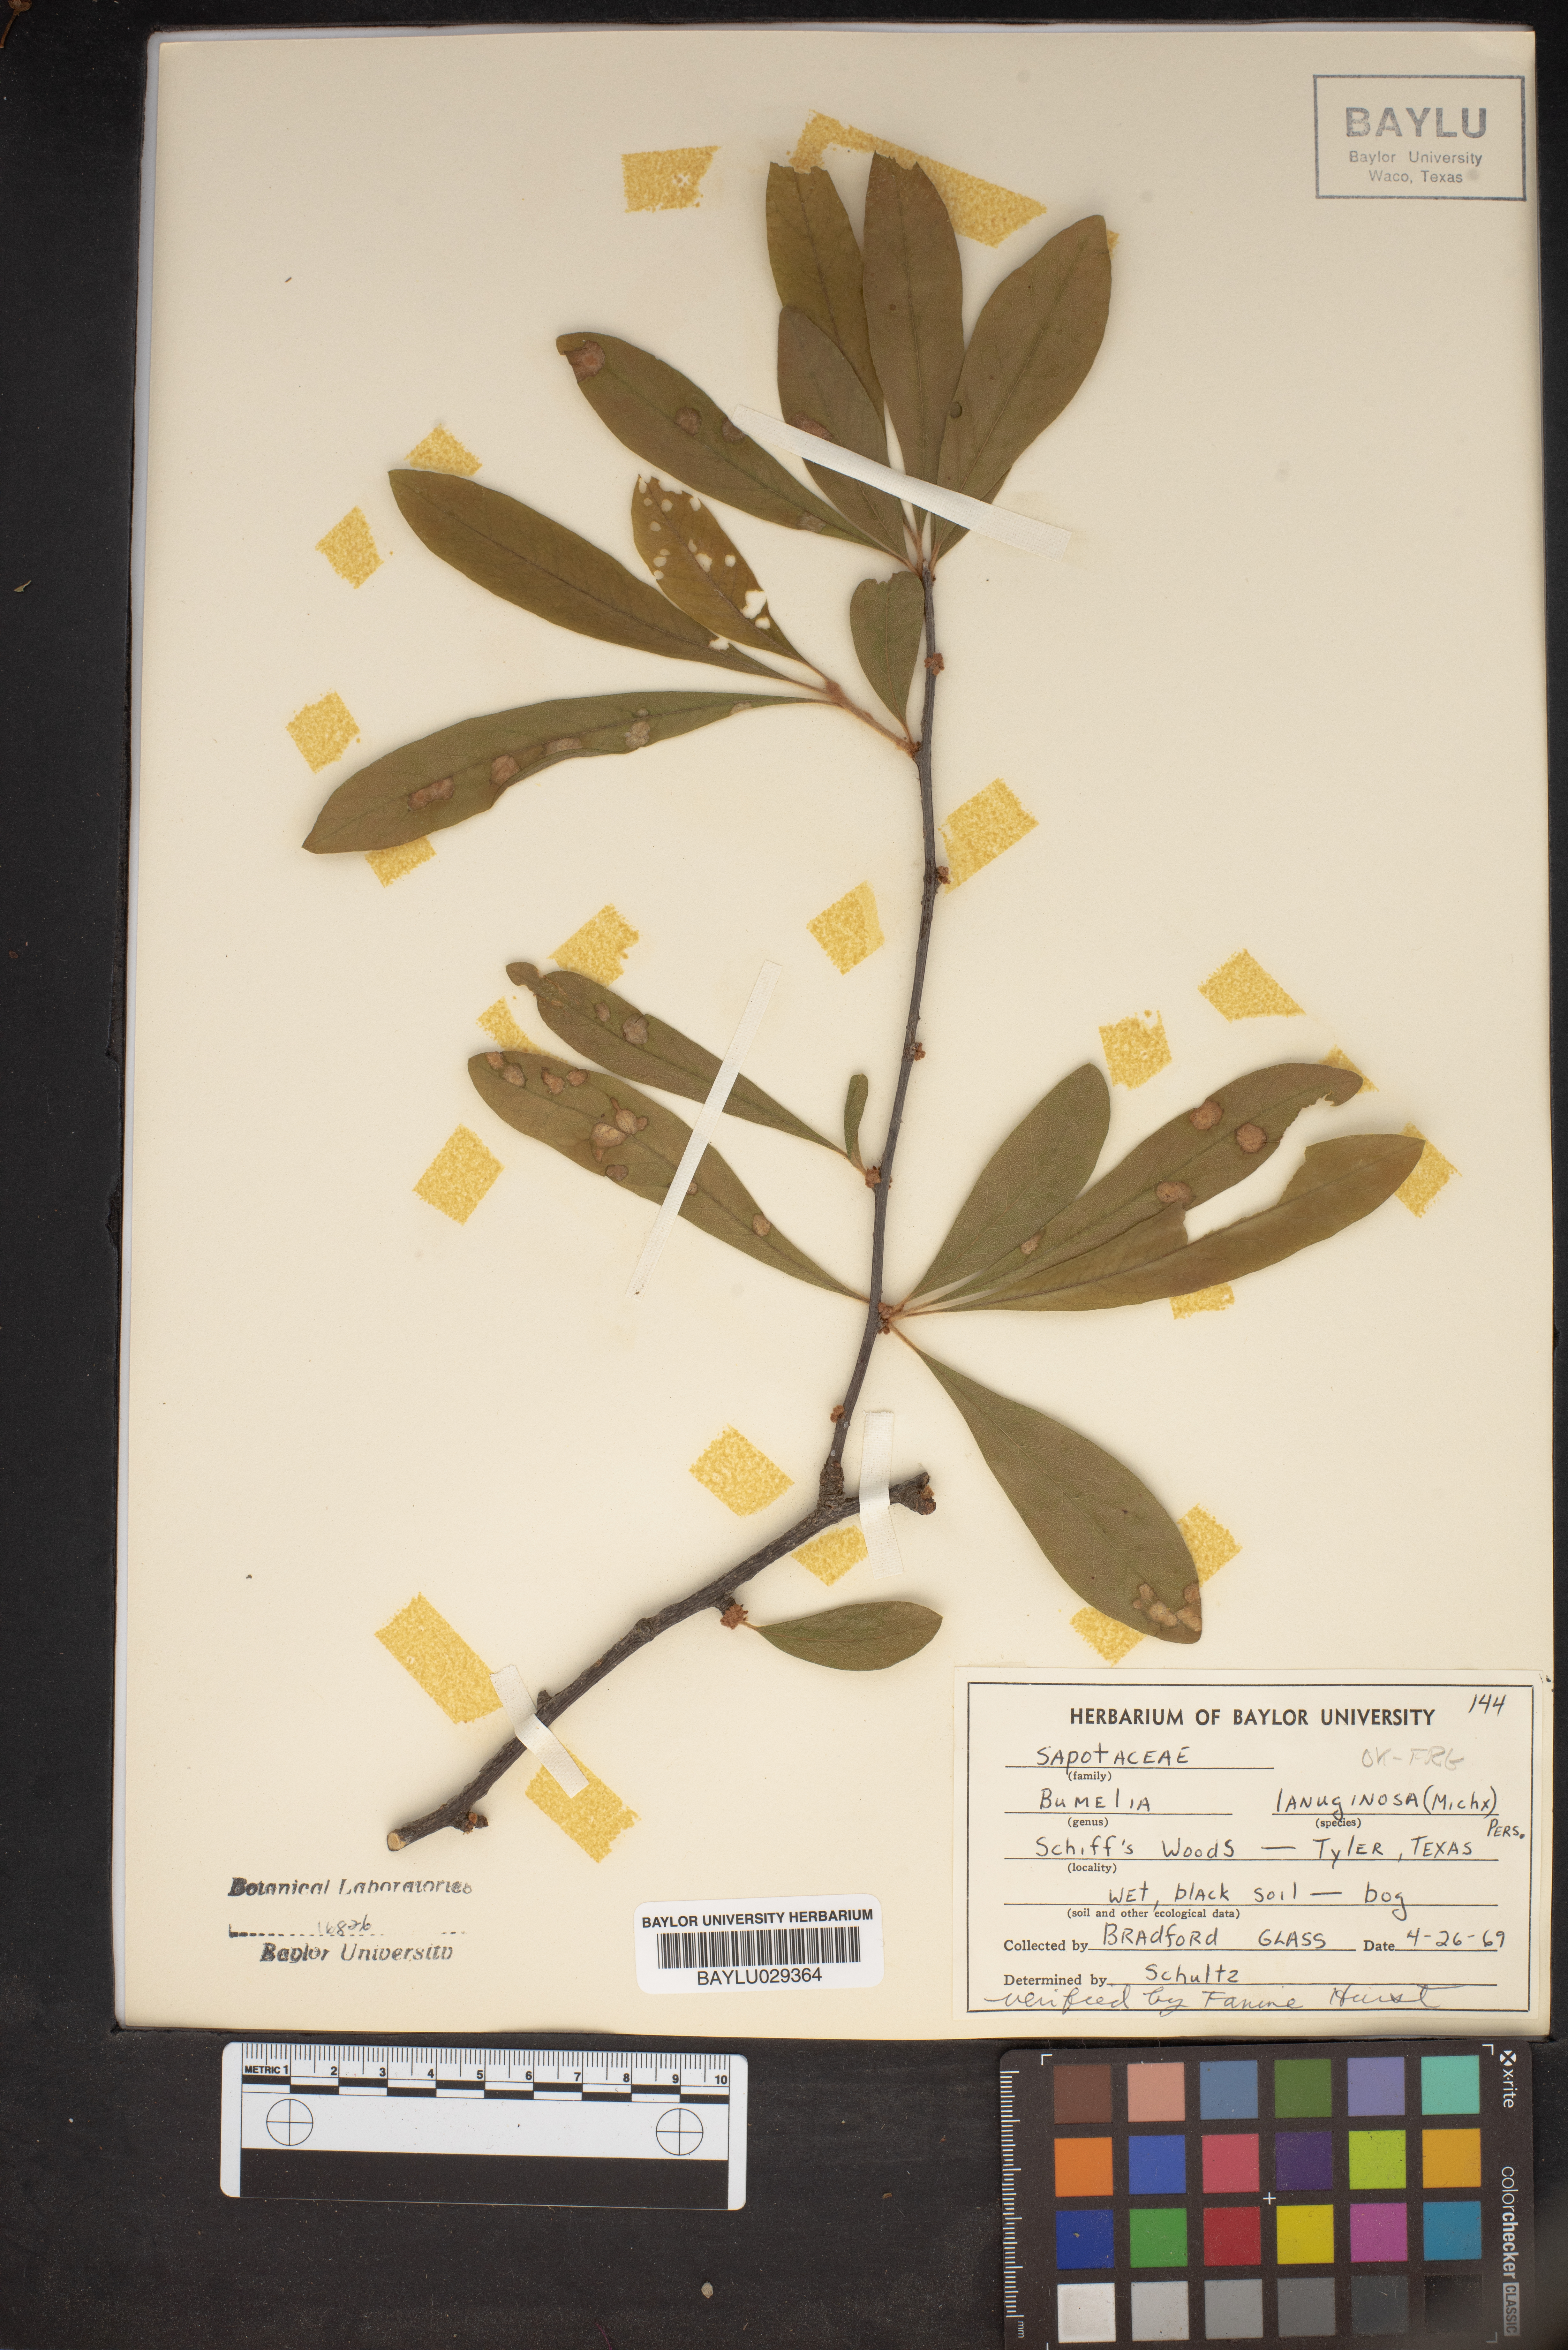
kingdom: Plantae
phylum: Tracheophyta
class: Magnoliopsida
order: Ericales
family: Sapotaceae
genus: Sideroxylon
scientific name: Sideroxylon lanuginosum
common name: Chittamwood
